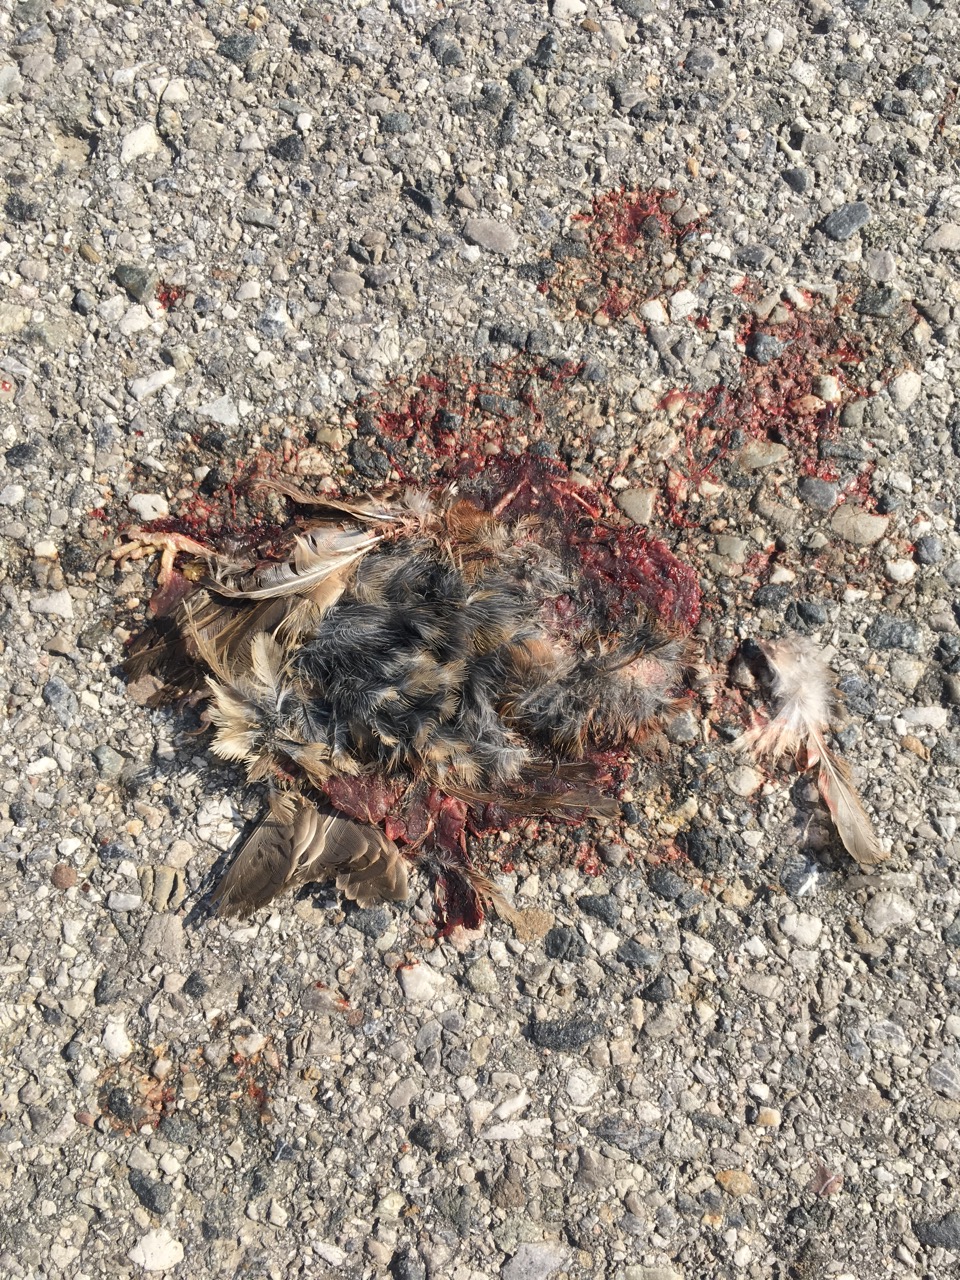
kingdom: Animalia
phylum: Chordata
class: Aves
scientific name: Aves
